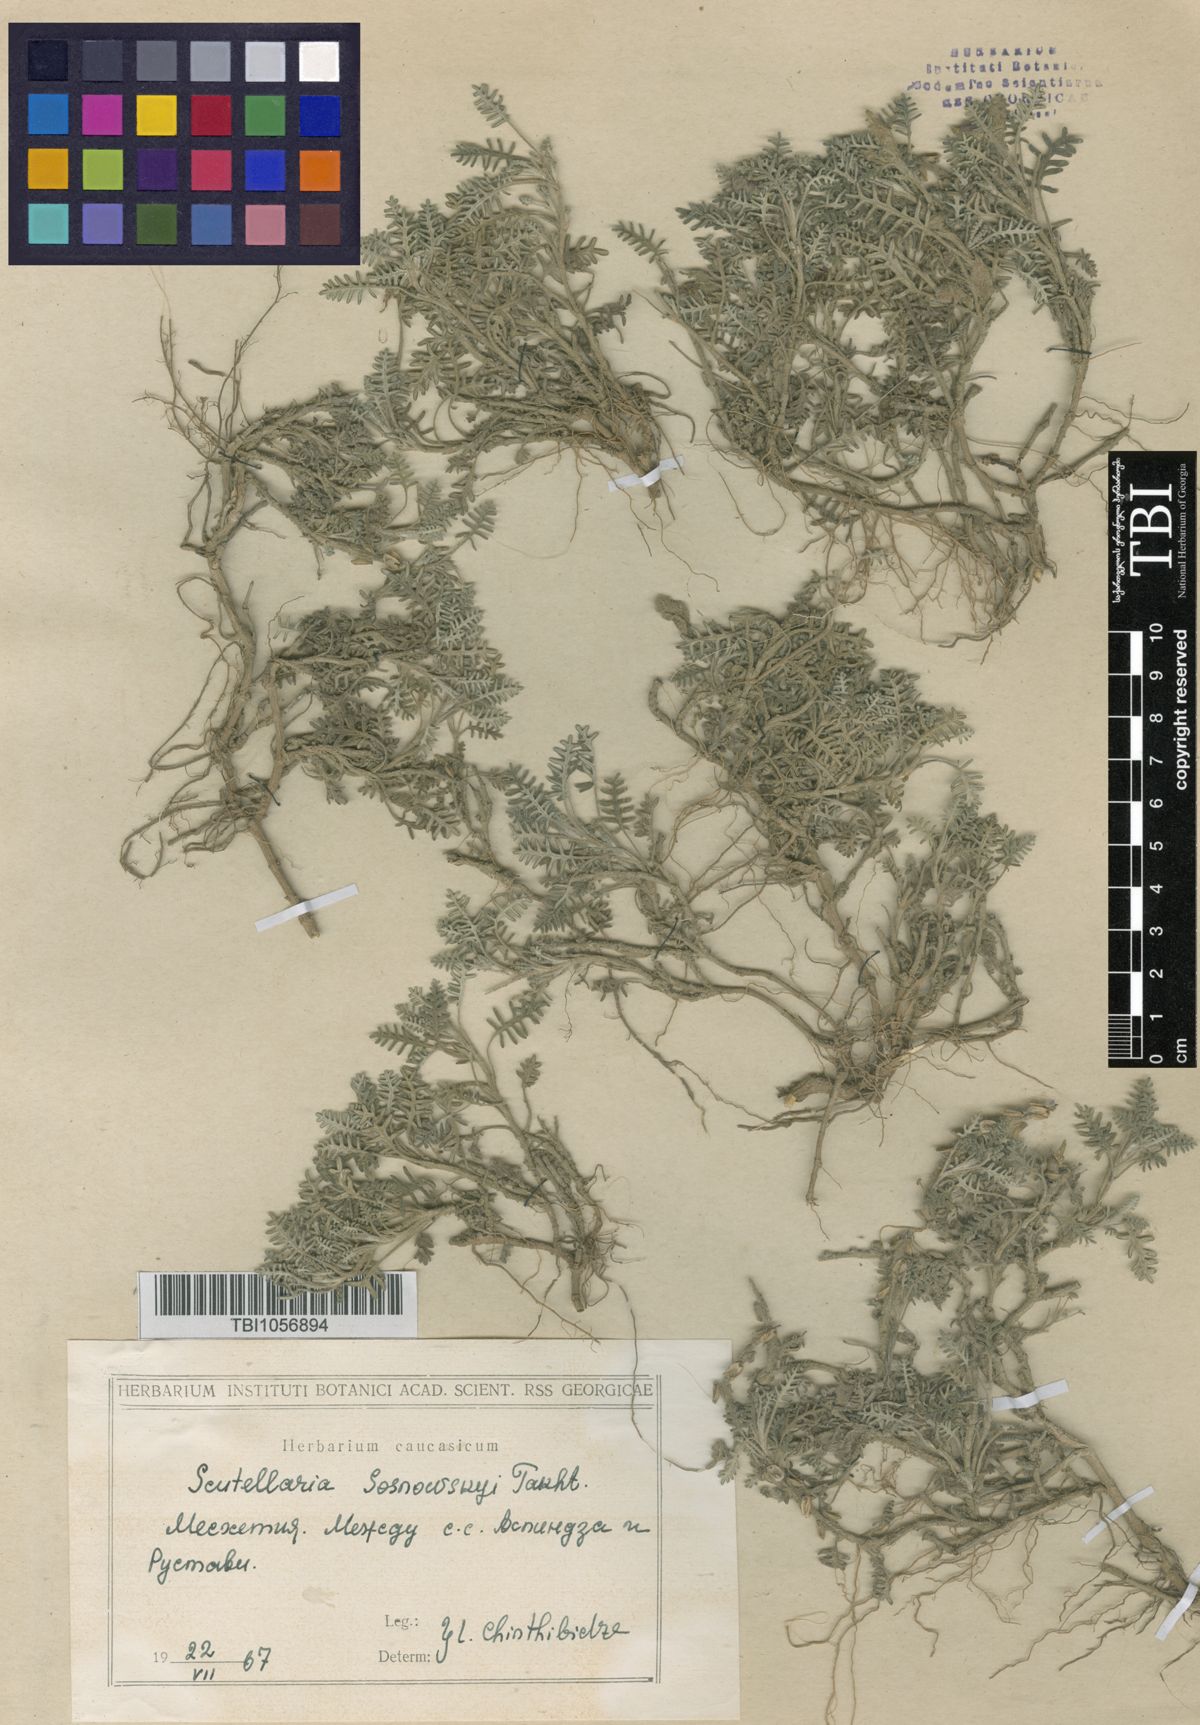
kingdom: Plantae
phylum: Tracheophyta
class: Magnoliopsida
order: Lamiales
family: Lamiaceae
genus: Scutellaria
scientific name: Scutellaria sosnowskyi
